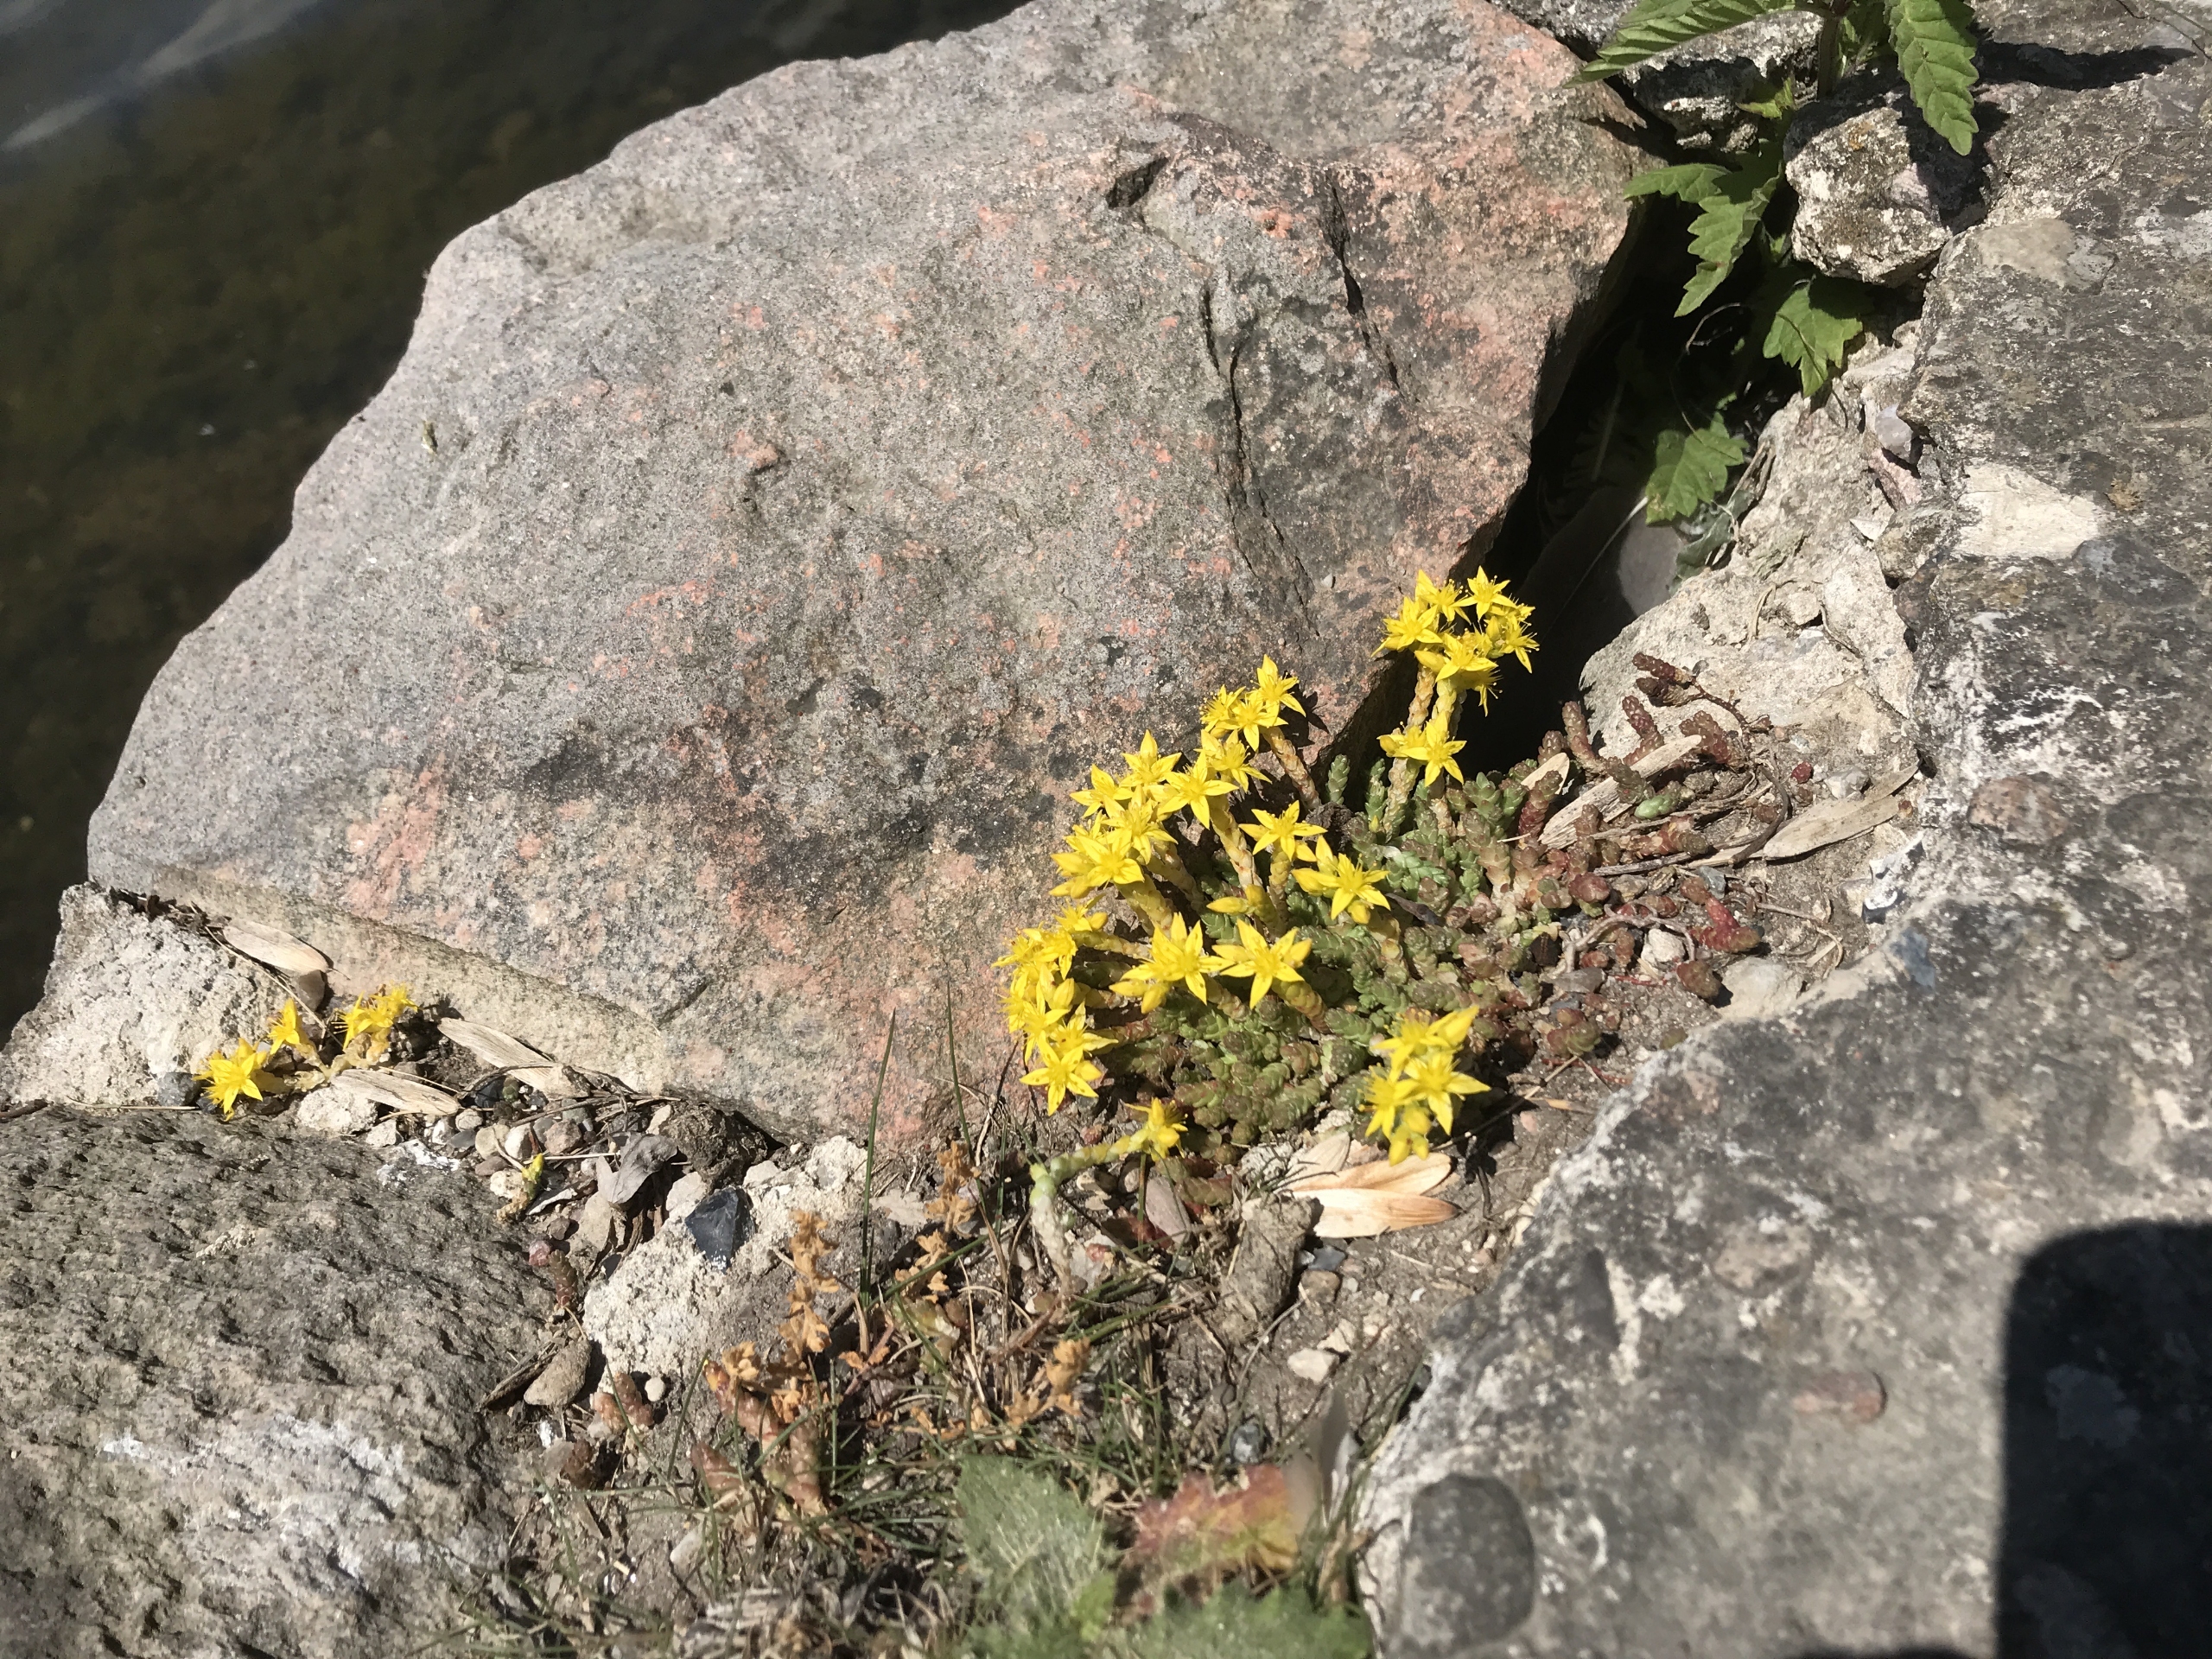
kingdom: Plantae
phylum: Tracheophyta
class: Magnoliopsida
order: Saxifragales
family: Crassulaceae
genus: Sedum
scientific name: Sedum acre
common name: Bidende stenurt
